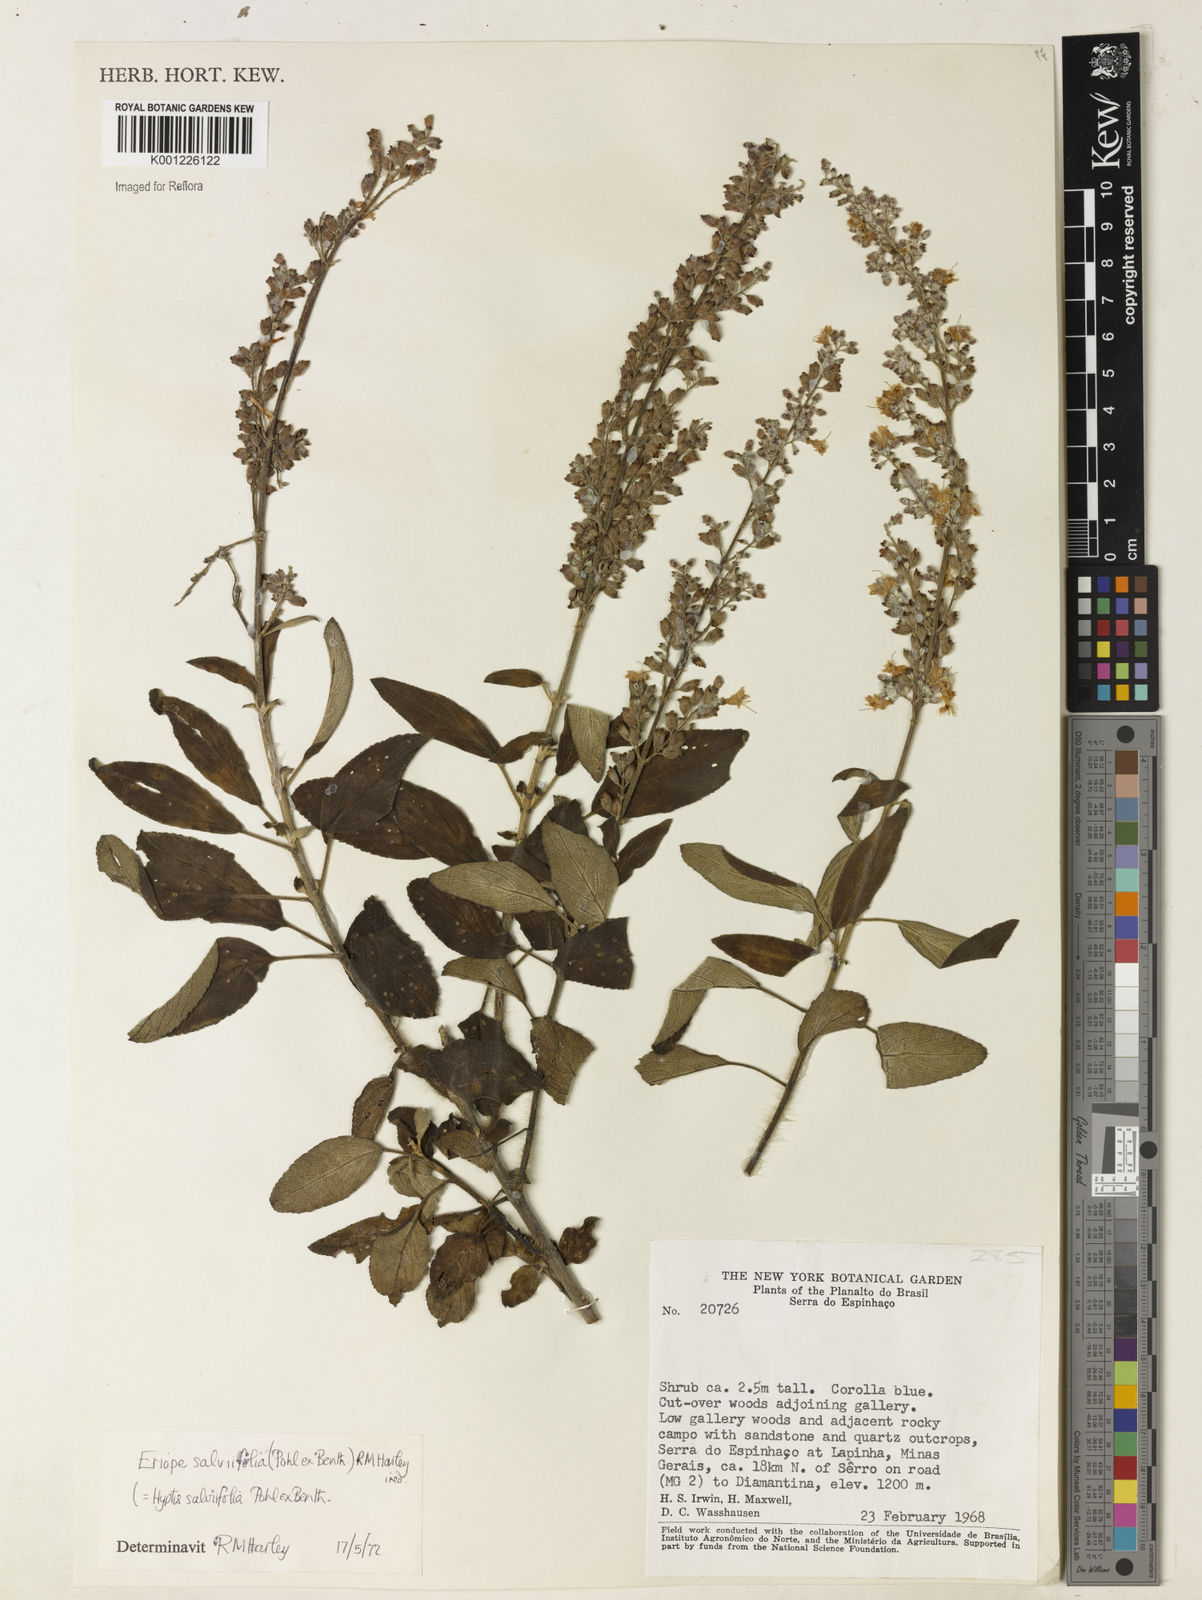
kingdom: Plantae
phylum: Tracheophyta
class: Magnoliopsida
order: Lamiales
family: Lamiaceae
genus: Eriope
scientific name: Eriope salviifolia
